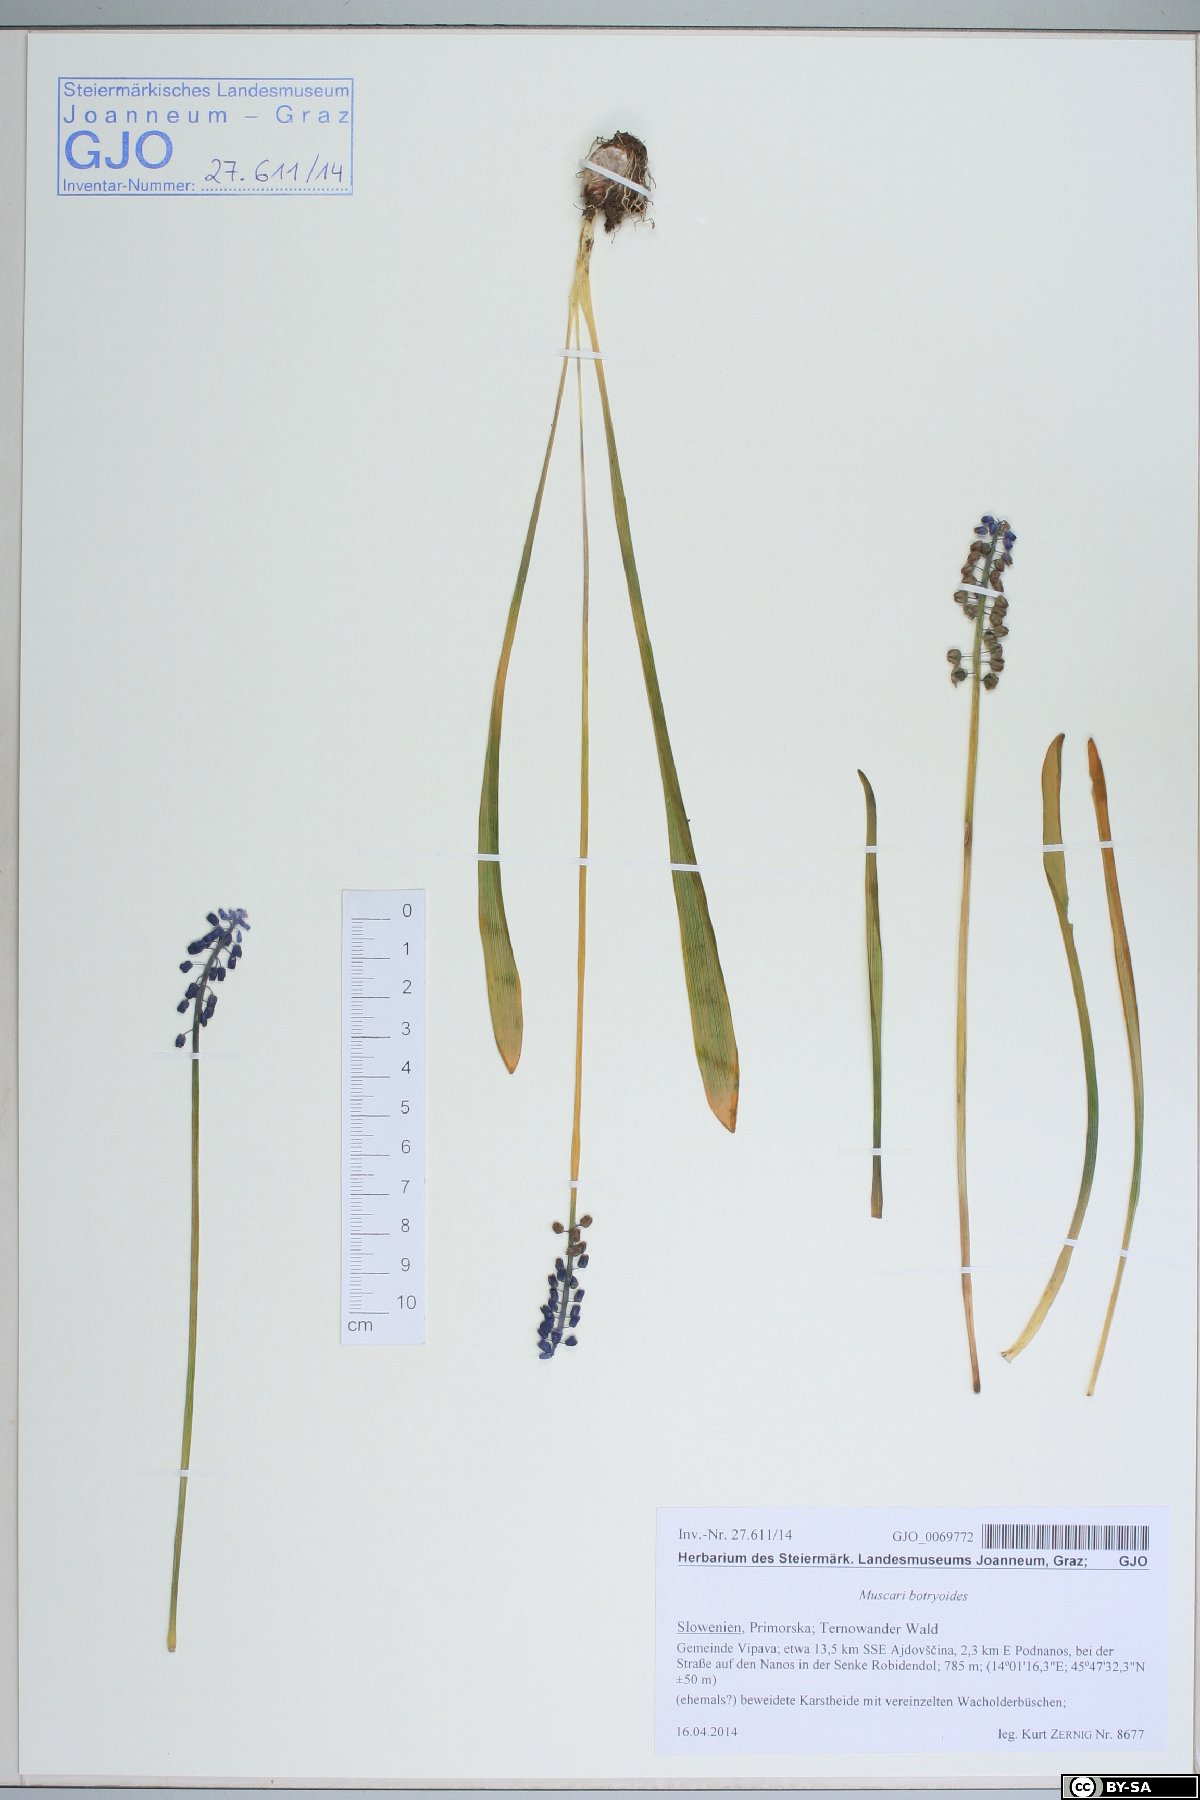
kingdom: Plantae
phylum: Tracheophyta
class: Liliopsida
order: Asparagales
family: Asparagaceae
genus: Muscari
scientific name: Muscari botryoides
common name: Compact grape-hyacinth
